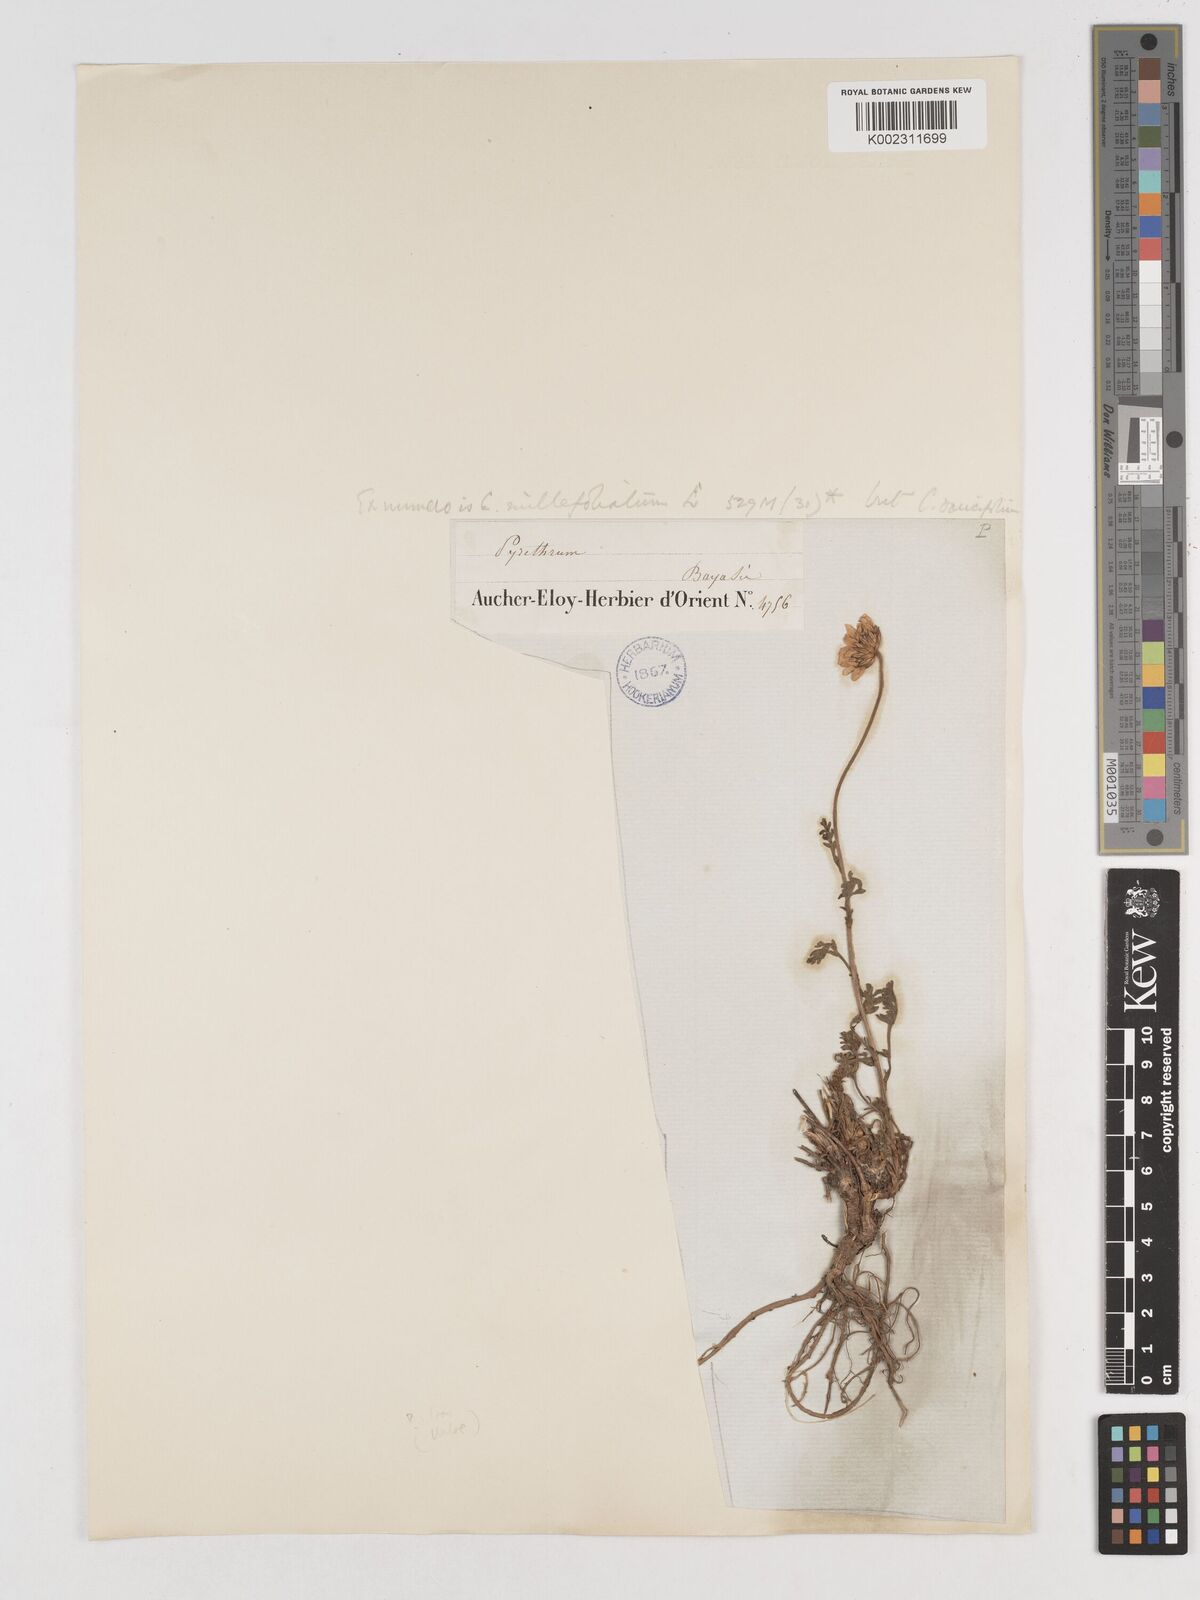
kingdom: Plantae
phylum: Tracheophyta
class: Magnoliopsida
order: Asterales
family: Asteraceae
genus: Tanacetum
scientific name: Tanacetum coccineum
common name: Pyrethum daisy
